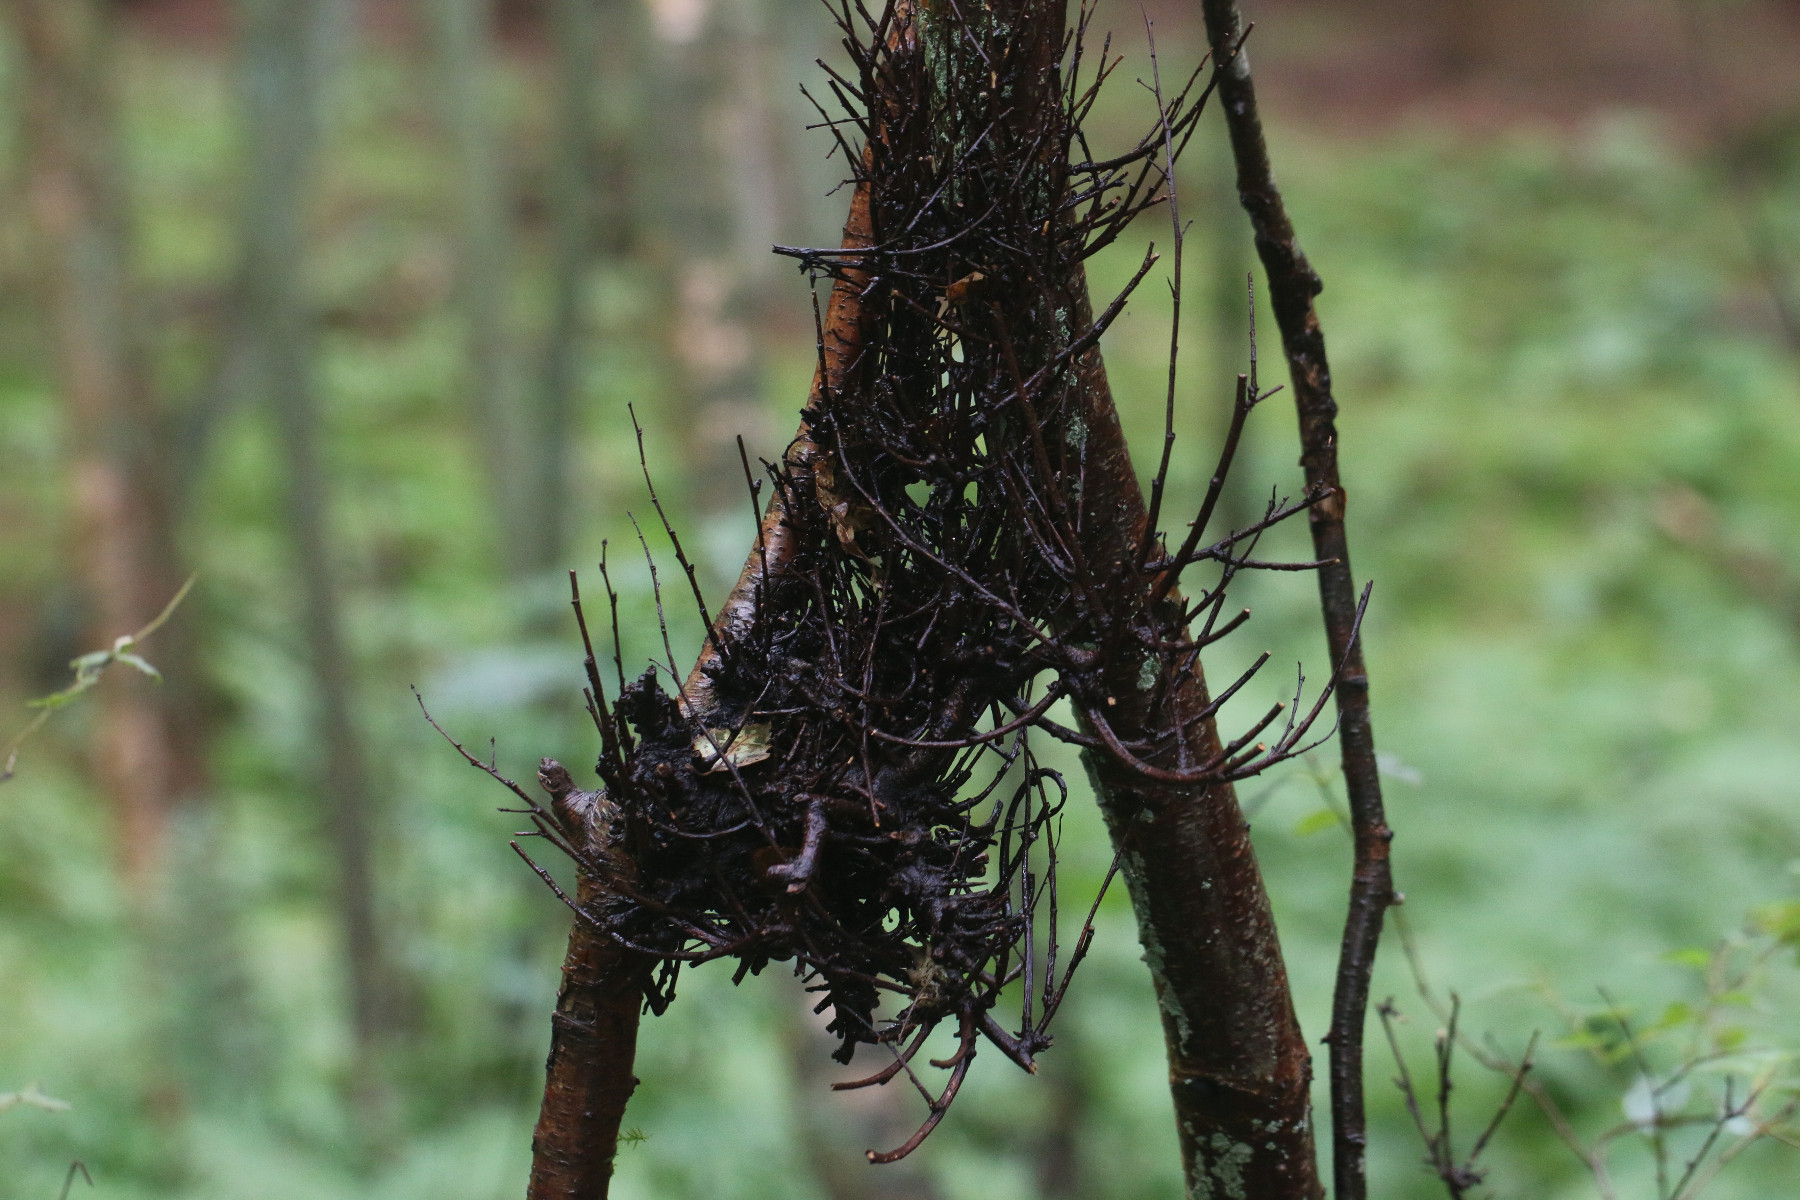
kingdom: Fungi
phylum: Ascomycota
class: Taphrinomycetes
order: Taphrinales
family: Taphrinaceae
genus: Taphrina
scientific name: Taphrina betulina
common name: hekse-sækdug
